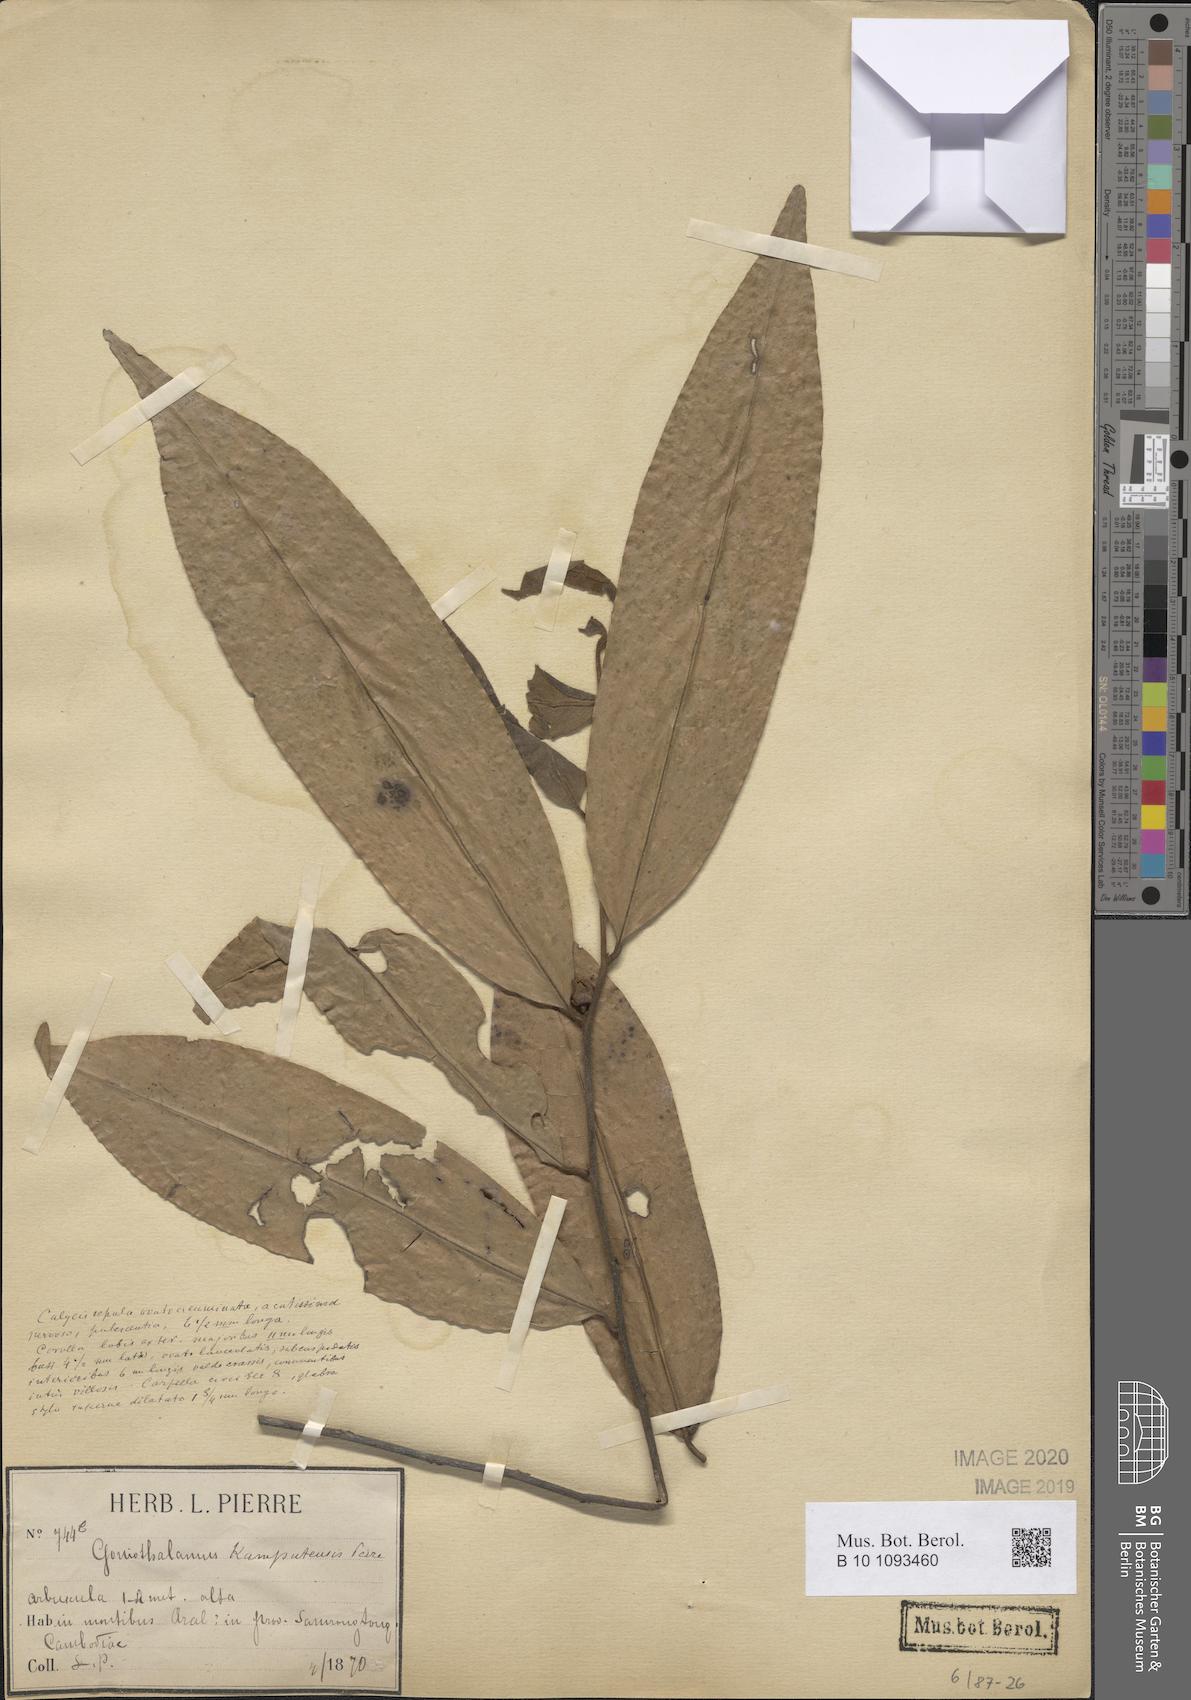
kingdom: Plantae
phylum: Tracheophyta
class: Magnoliopsida
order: Magnoliales
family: Annonaceae
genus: Goniothalamus
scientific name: Goniothalamus tamirensis
